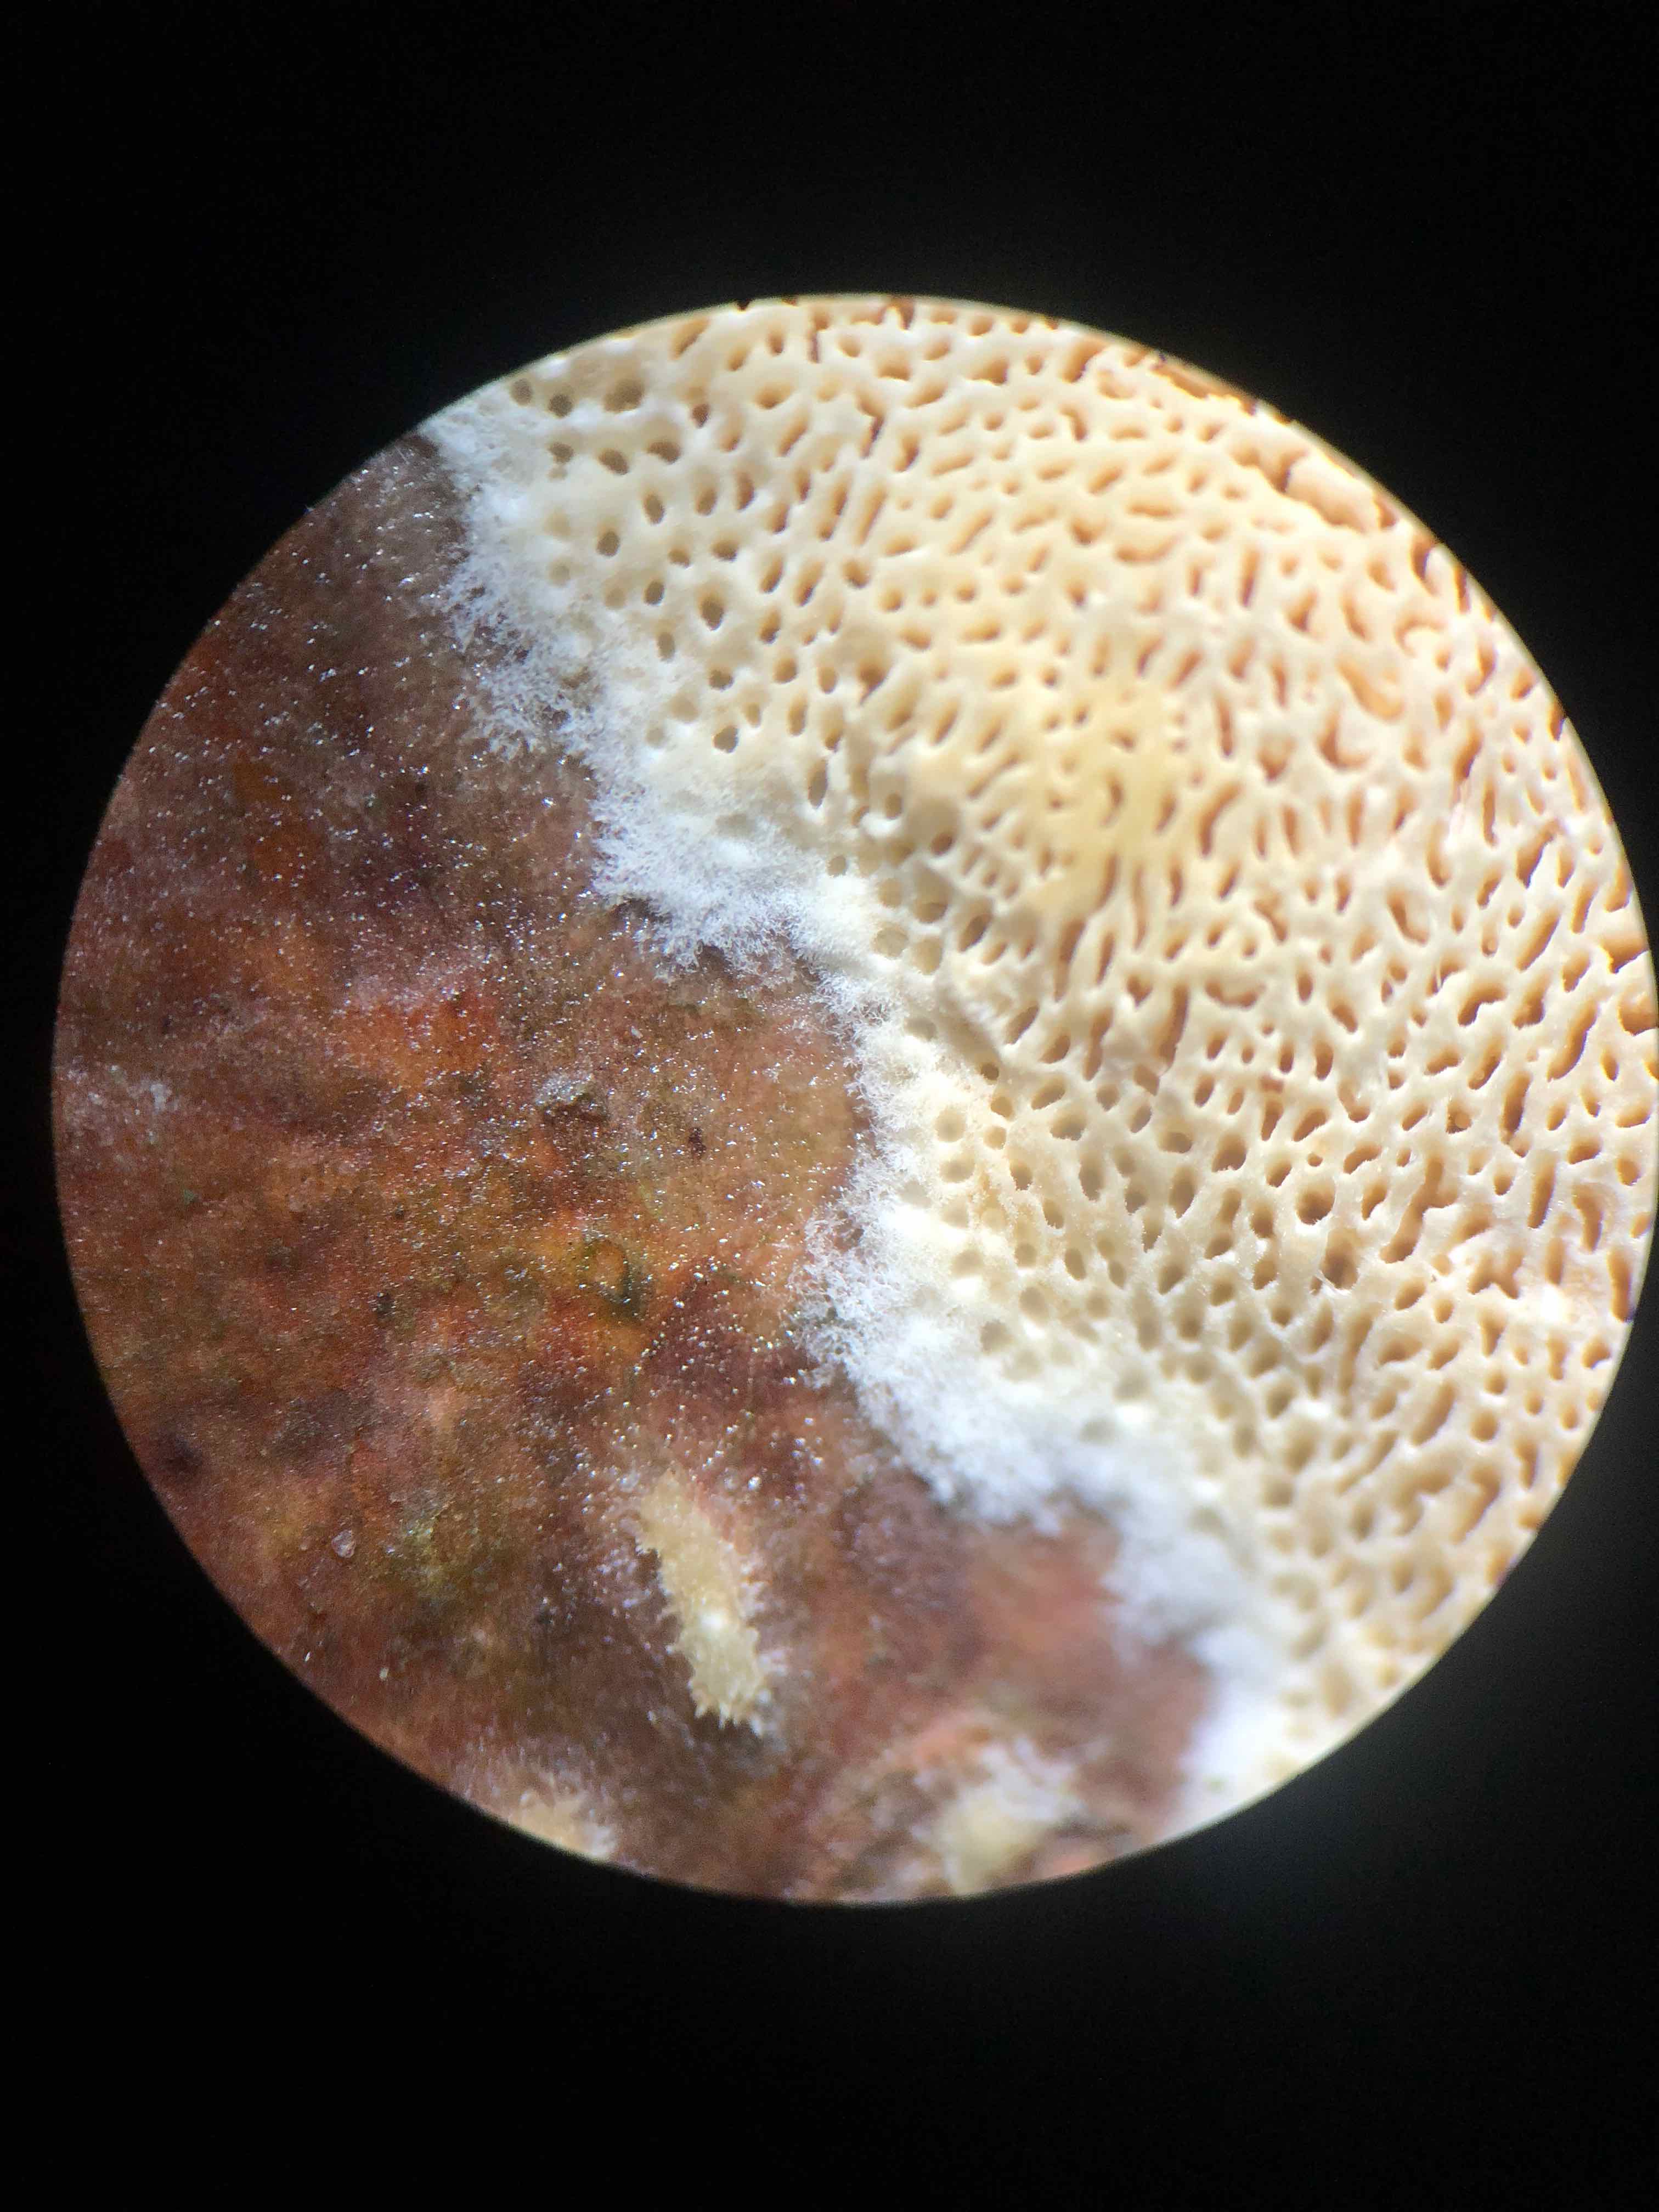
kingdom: Fungi
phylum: Basidiomycota
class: Agaricomycetes
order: Hymenochaetales
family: Schizoporaceae
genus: Xylodon
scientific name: Xylodon subtropicus
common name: labyrint-tandsvamp
